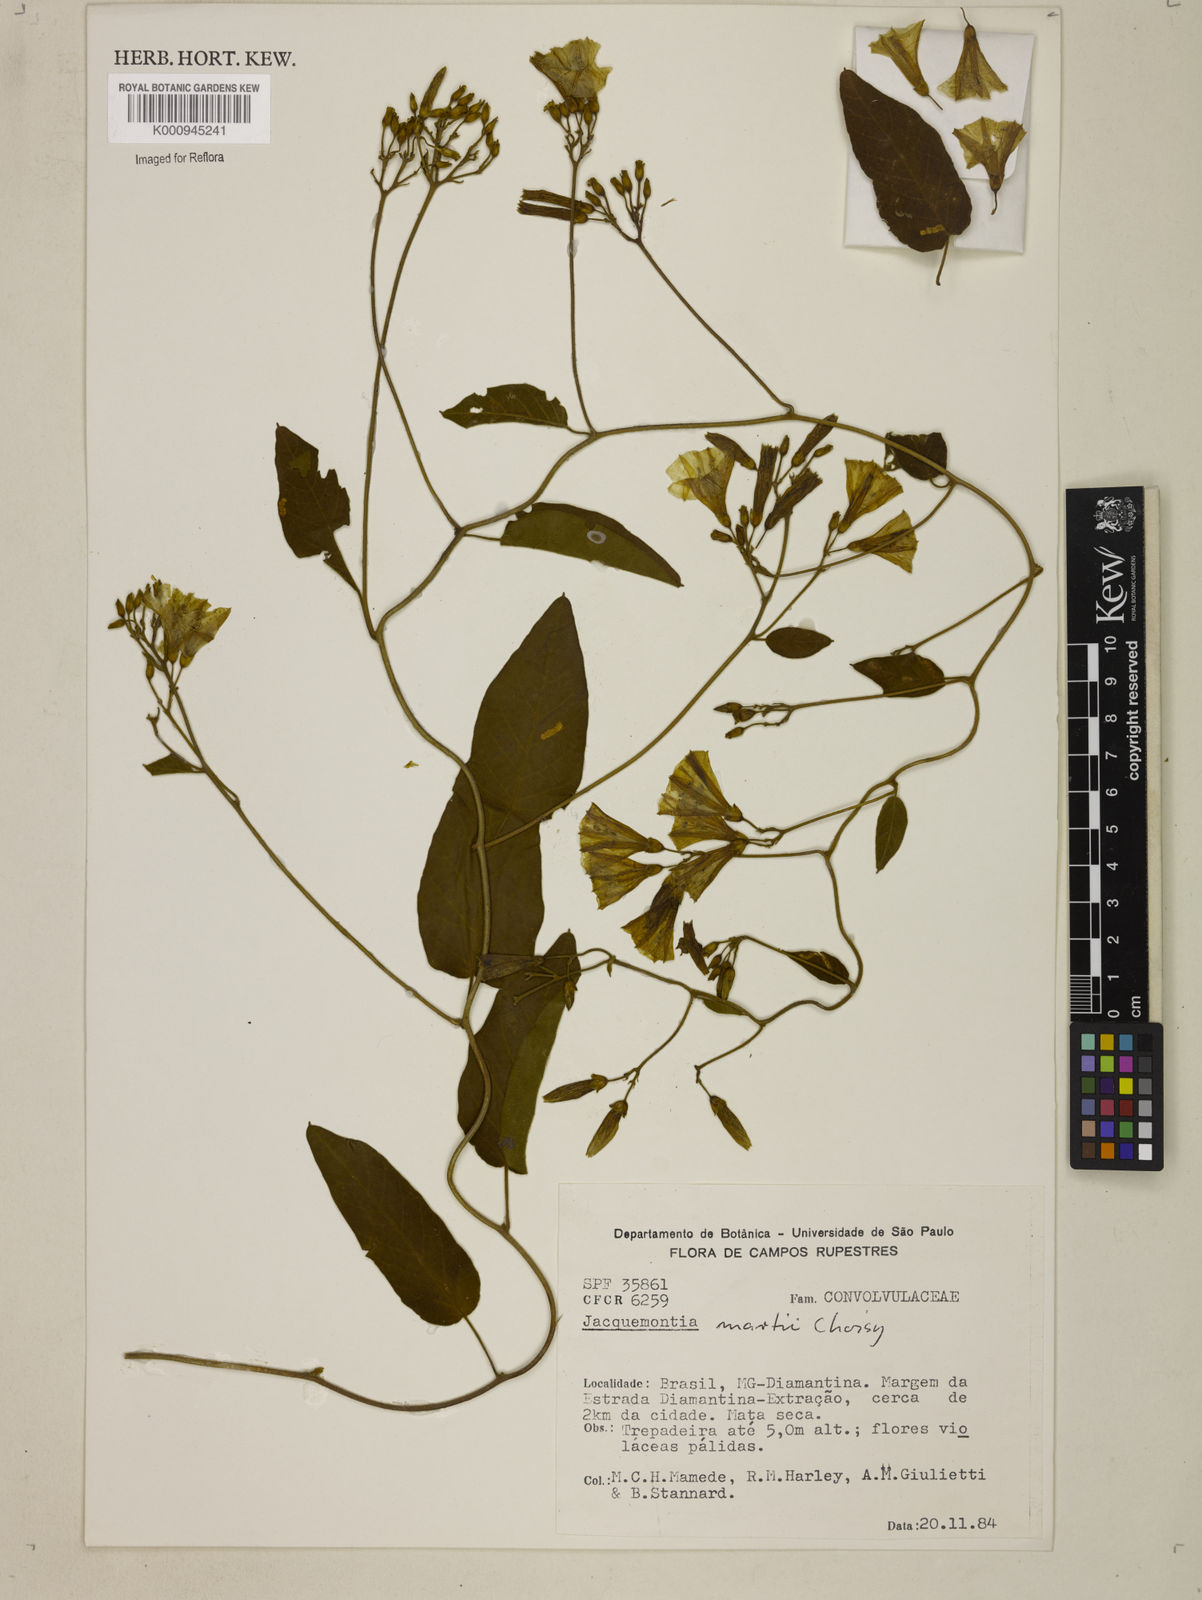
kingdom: Plantae
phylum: Tracheophyta
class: Magnoliopsida
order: Solanales
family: Convolvulaceae
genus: Jacquemontia
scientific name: Jacquemontia
